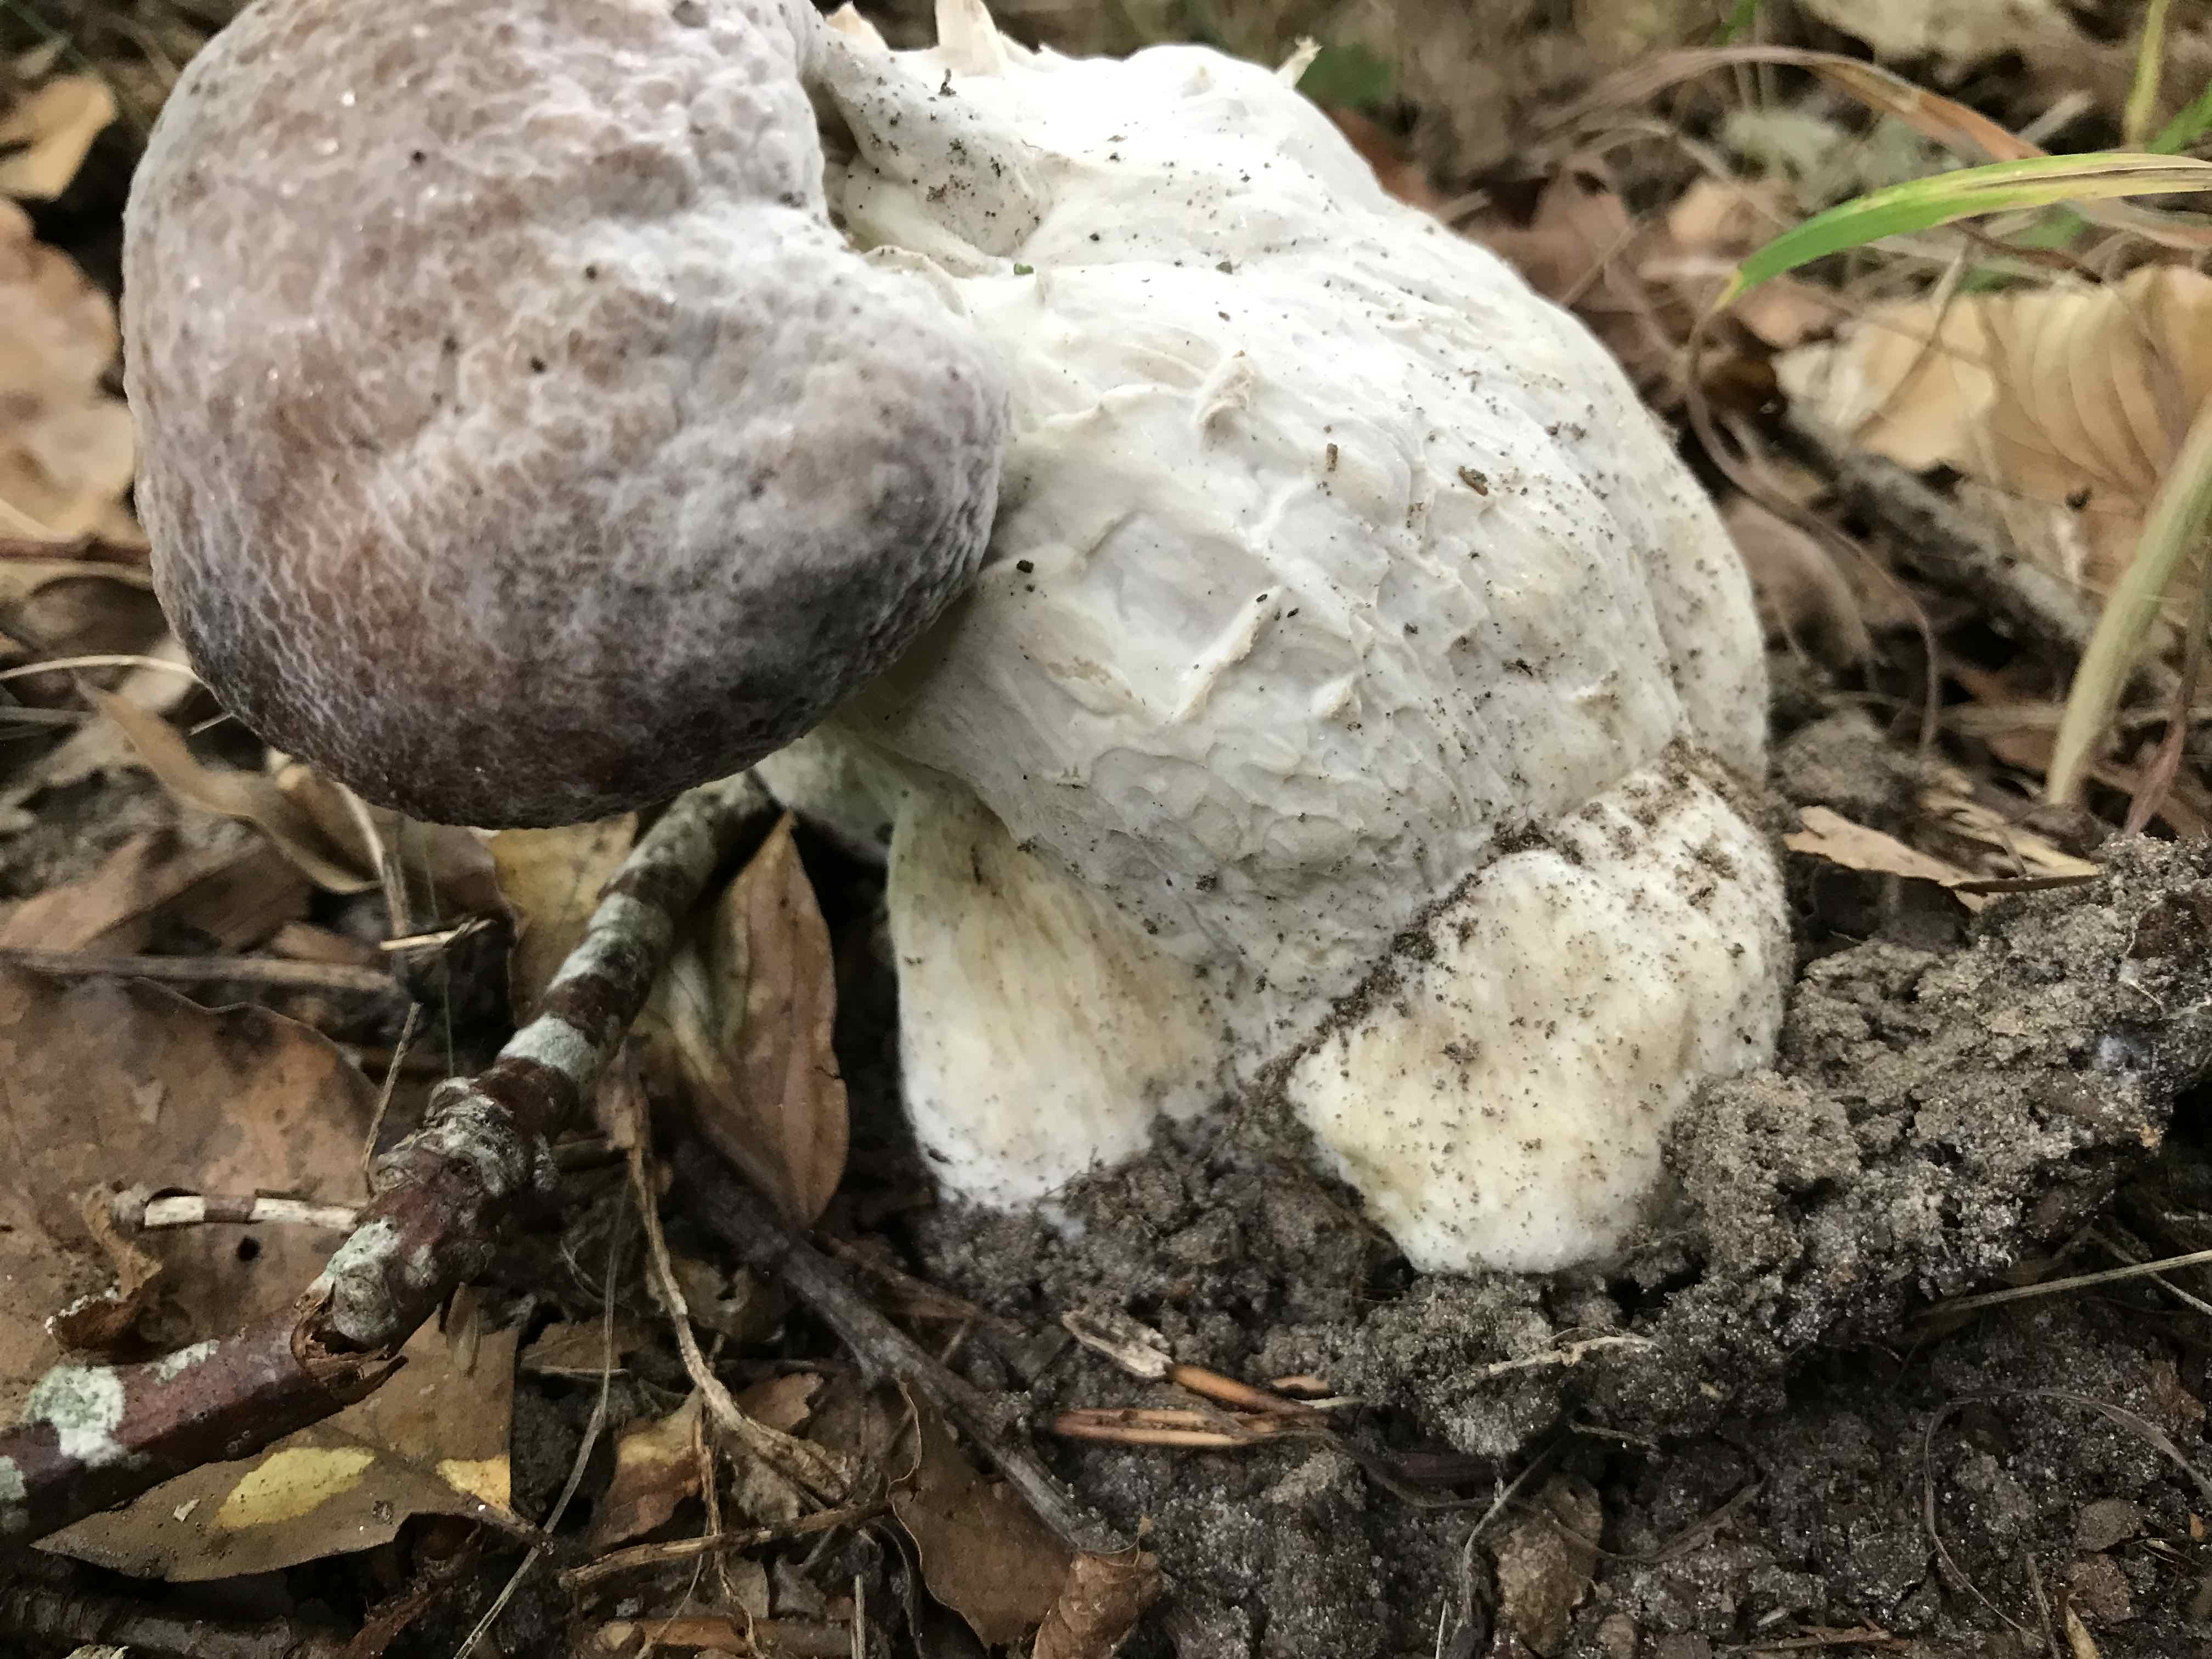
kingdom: Fungi
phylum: Ascomycota
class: Sordariomycetes
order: Hypocreales
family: Hypocreaceae
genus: Hypomyces
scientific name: Hypomyces
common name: snylteskorpe
